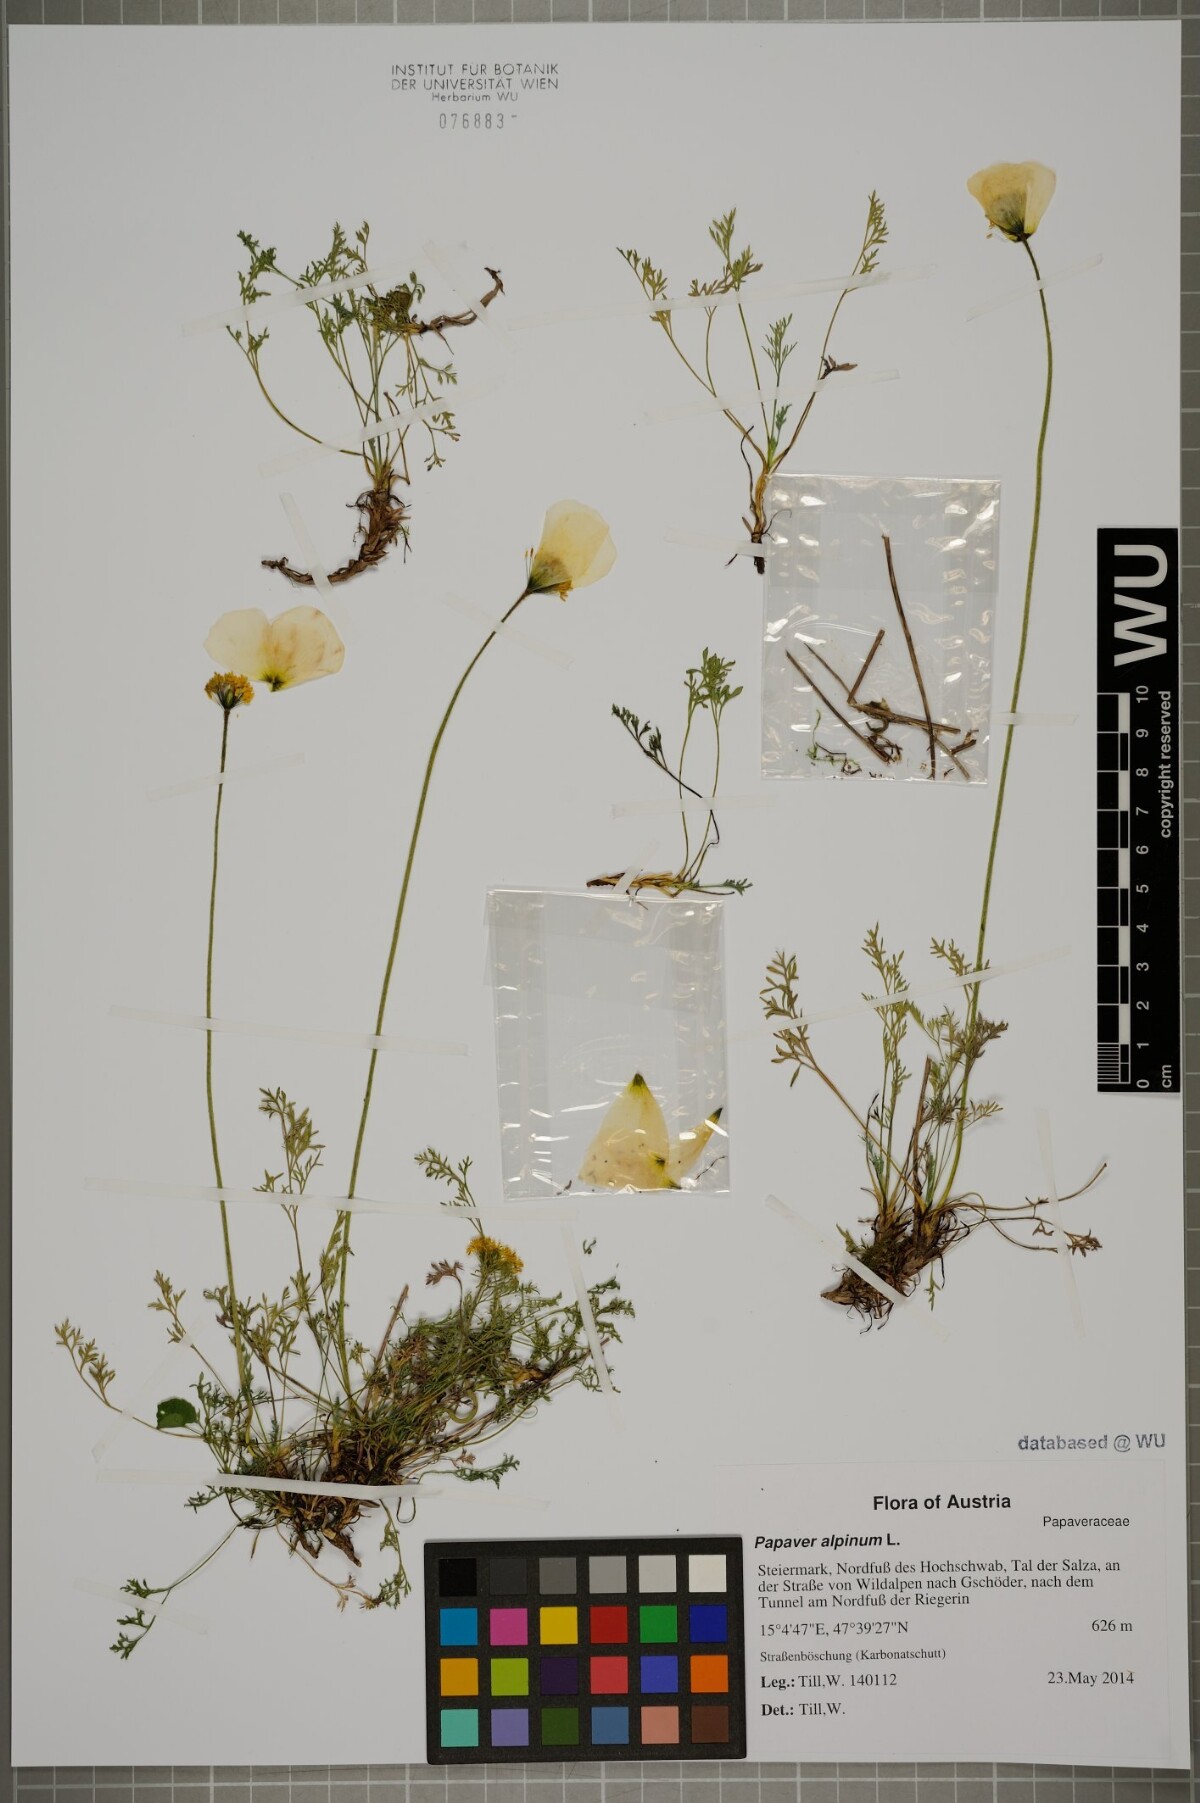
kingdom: Plantae
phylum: Tracheophyta
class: Magnoliopsida
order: Ranunculales
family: Papaveraceae
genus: Papaver
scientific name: Papaver alpinum
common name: Austrian poppy
